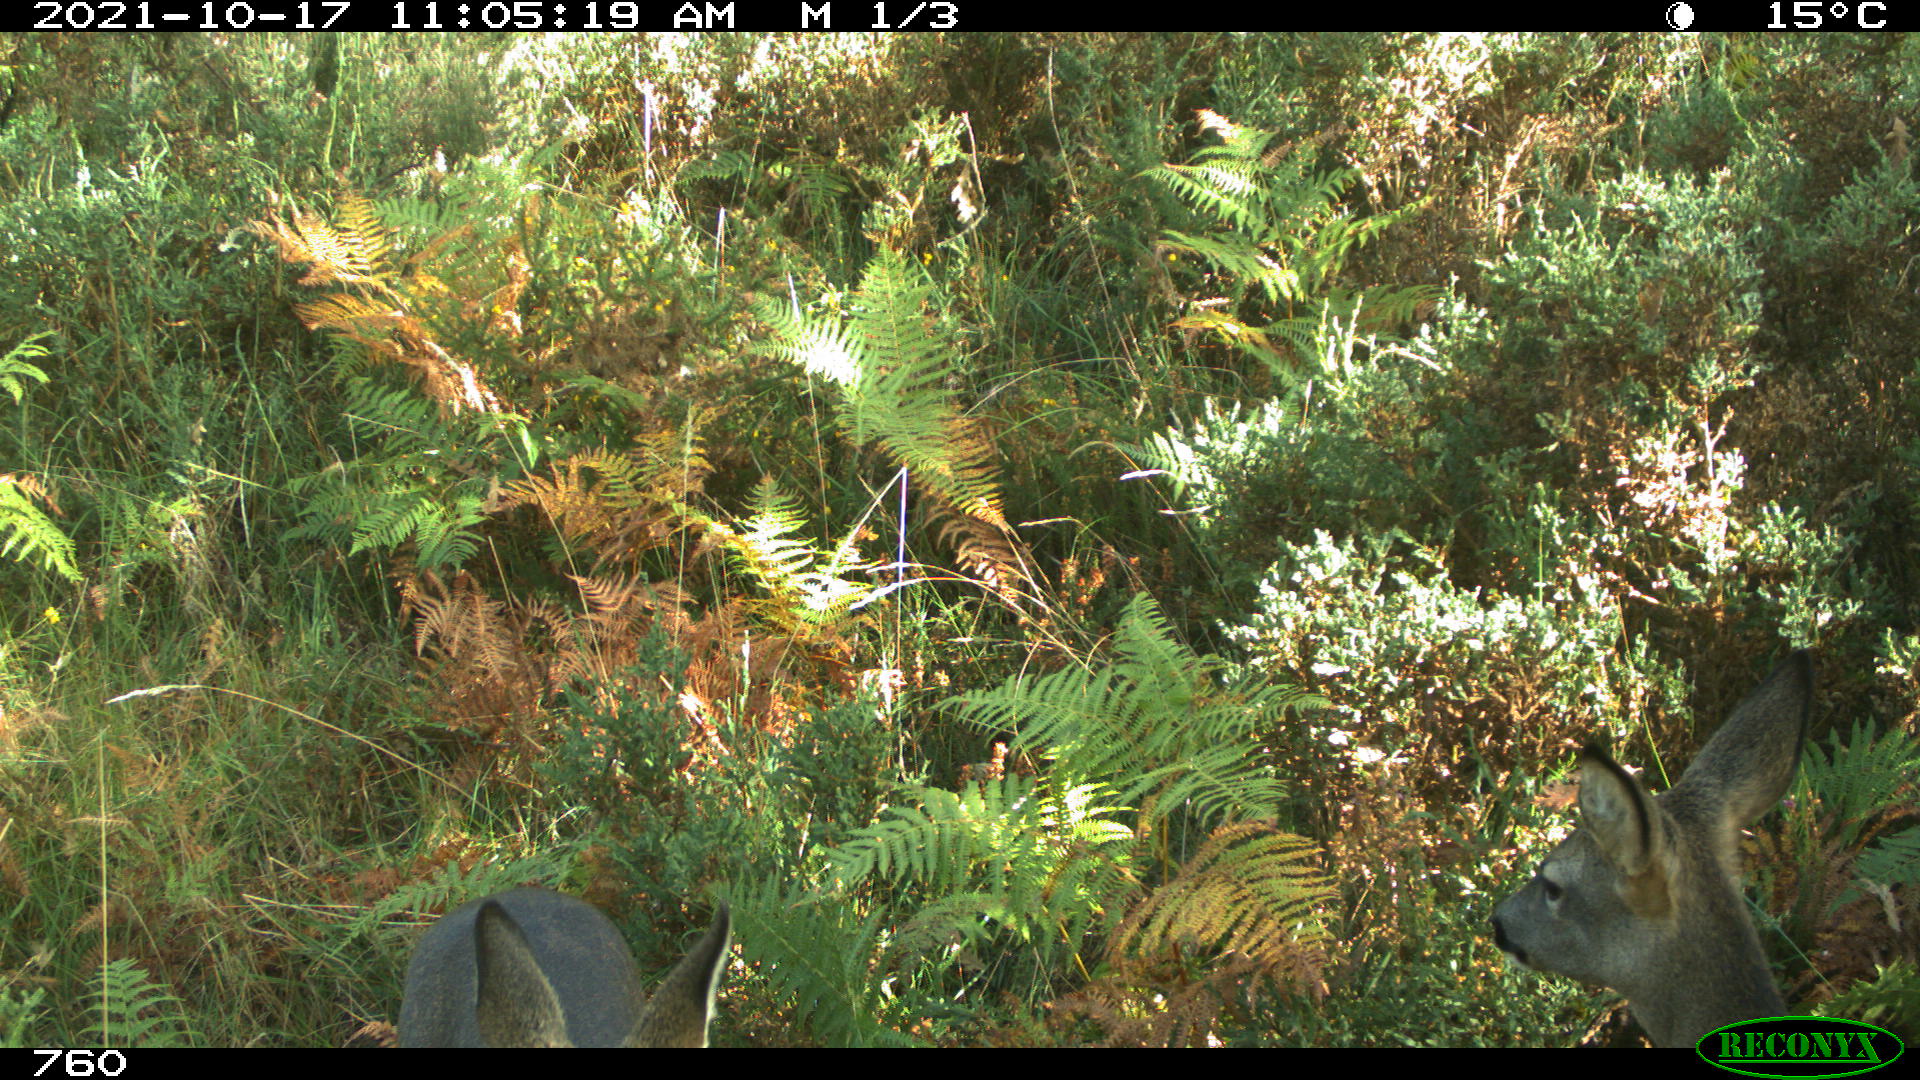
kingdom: Animalia
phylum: Chordata
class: Mammalia
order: Artiodactyla
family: Cervidae
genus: Capreolus
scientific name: Capreolus capreolus
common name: Western roe deer
